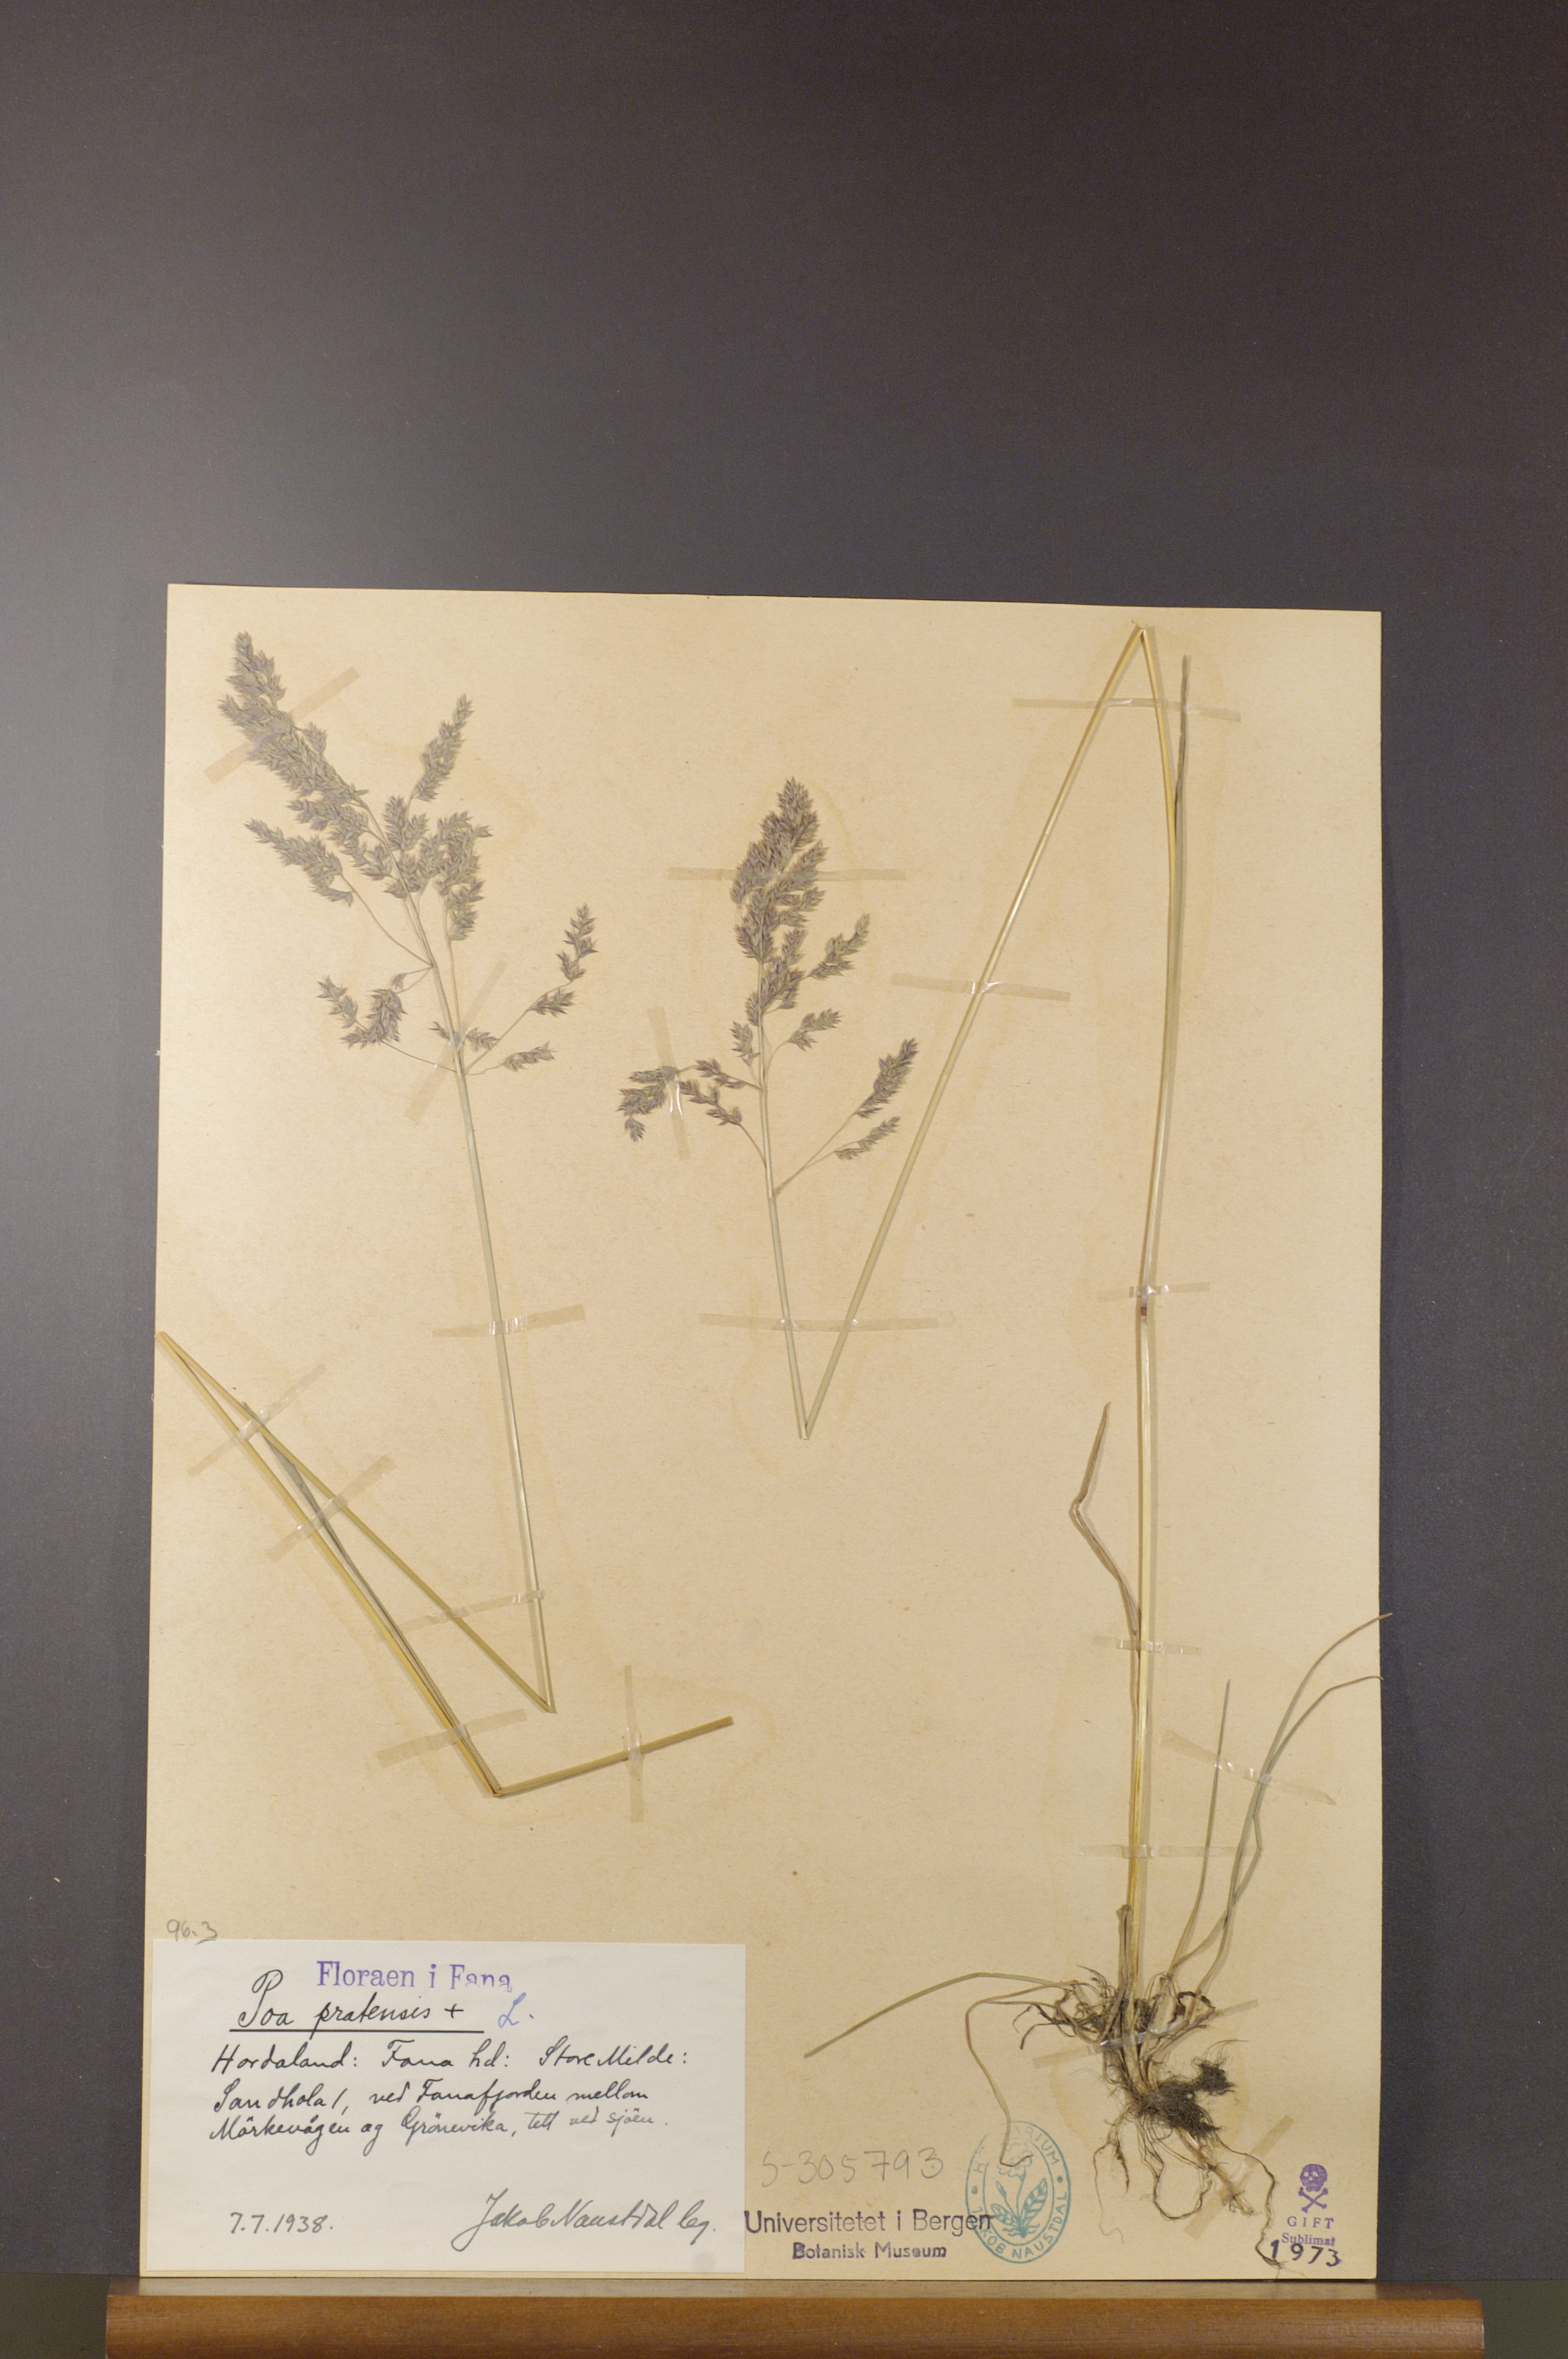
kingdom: Plantae
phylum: Tracheophyta
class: Liliopsida
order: Poales
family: Poaceae
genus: Poa
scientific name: Poa pratensis
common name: Kentucky bluegrass
